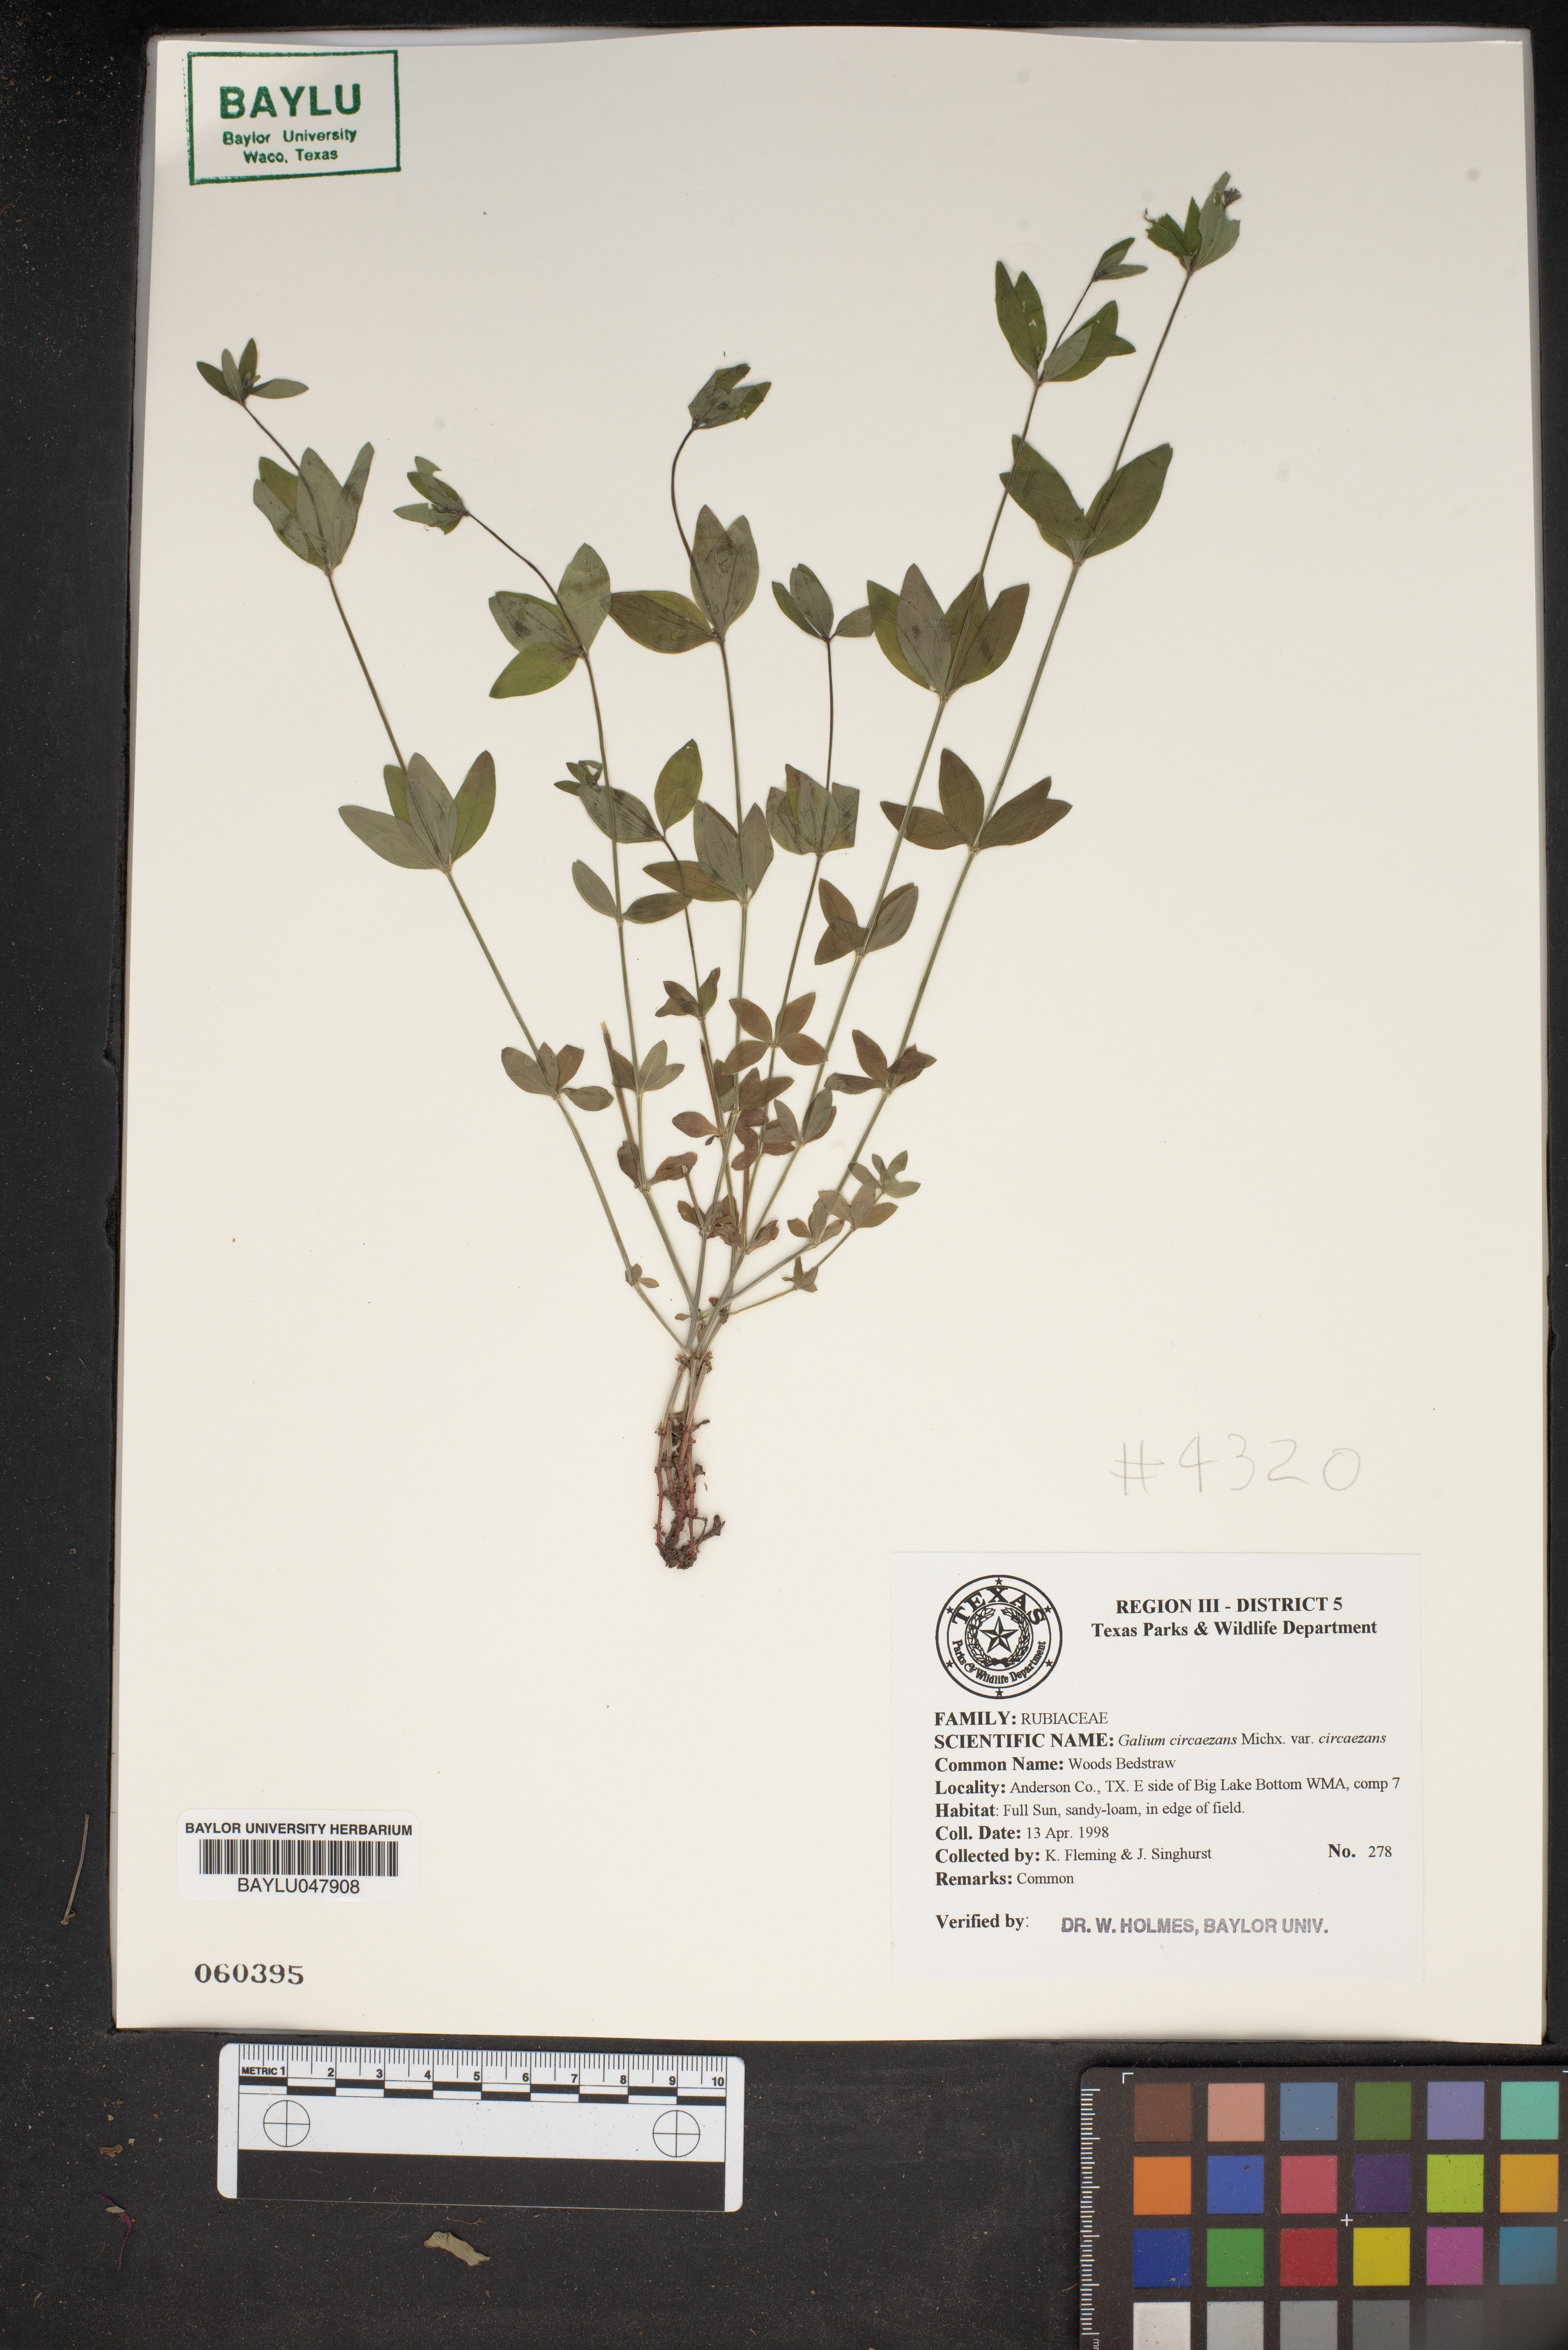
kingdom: Plantae
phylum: Tracheophyta
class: Magnoliopsida
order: Gentianales
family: Rubiaceae
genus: Galium
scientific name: Galium circaezans
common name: Forest bedstraw
